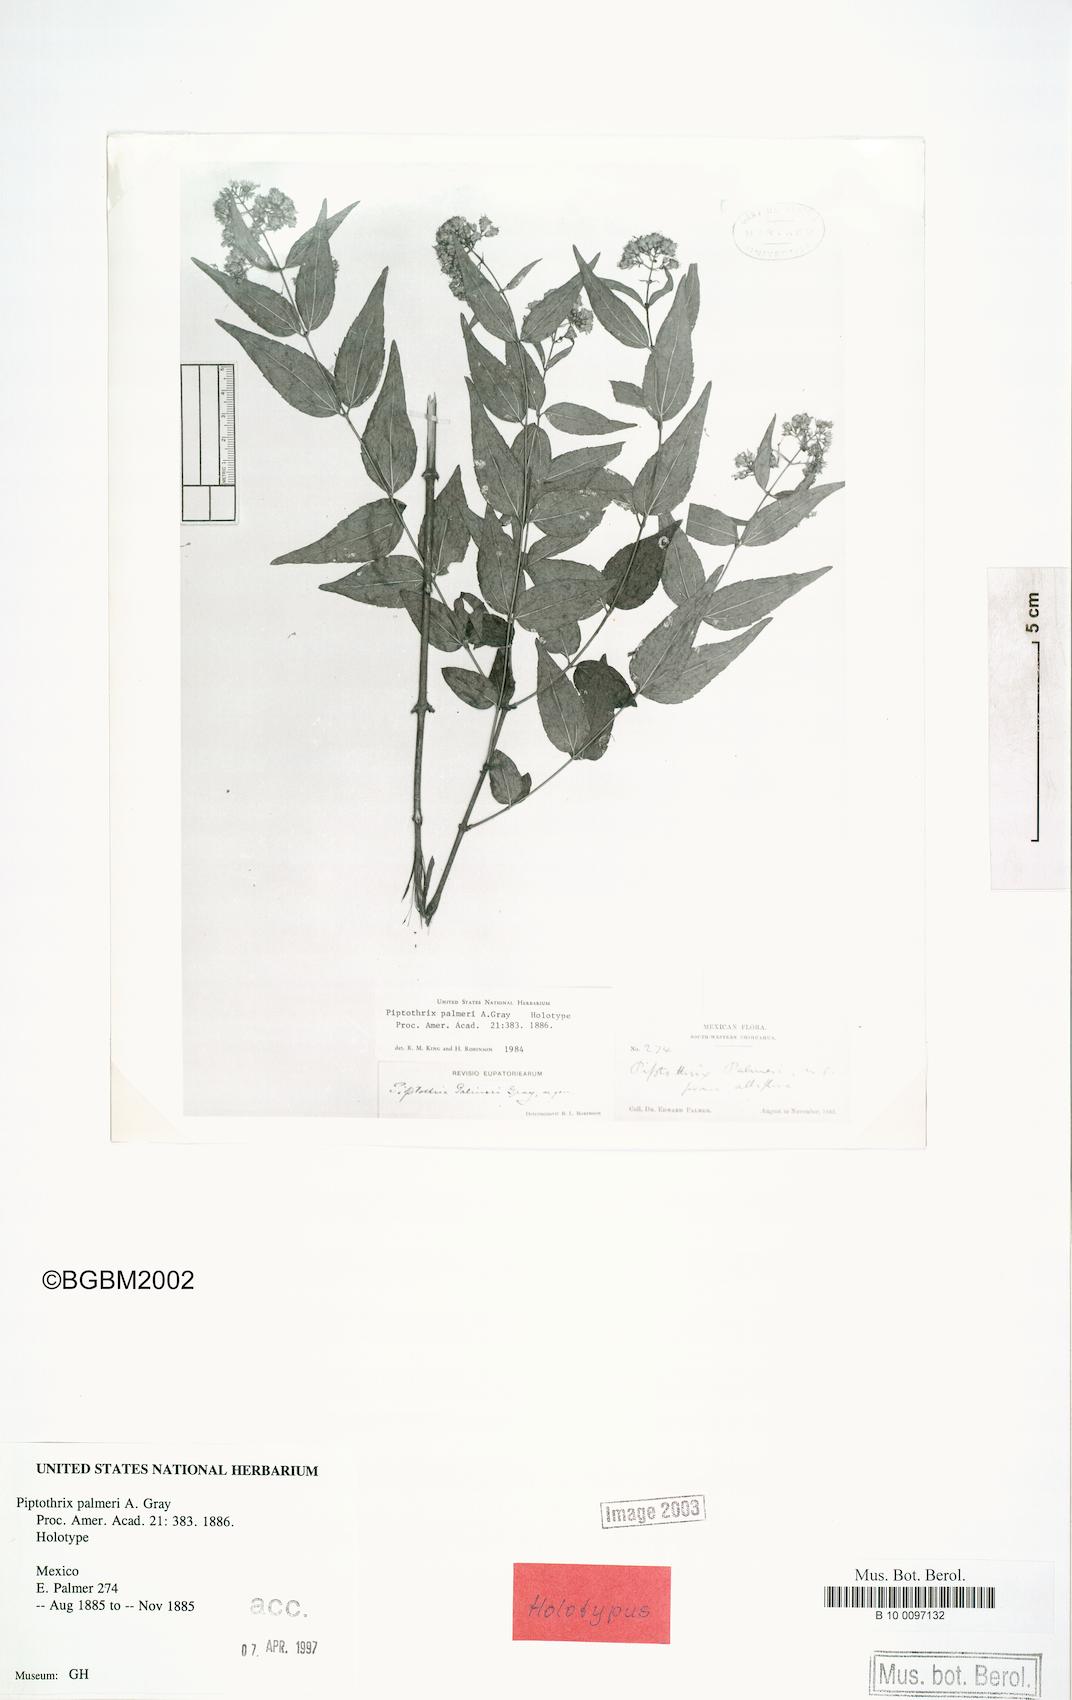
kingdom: Plantae
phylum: Tracheophyta
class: Magnoliopsida
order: Asterales
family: Asteraceae
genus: Ageratina
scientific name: Ageratina palmeri
